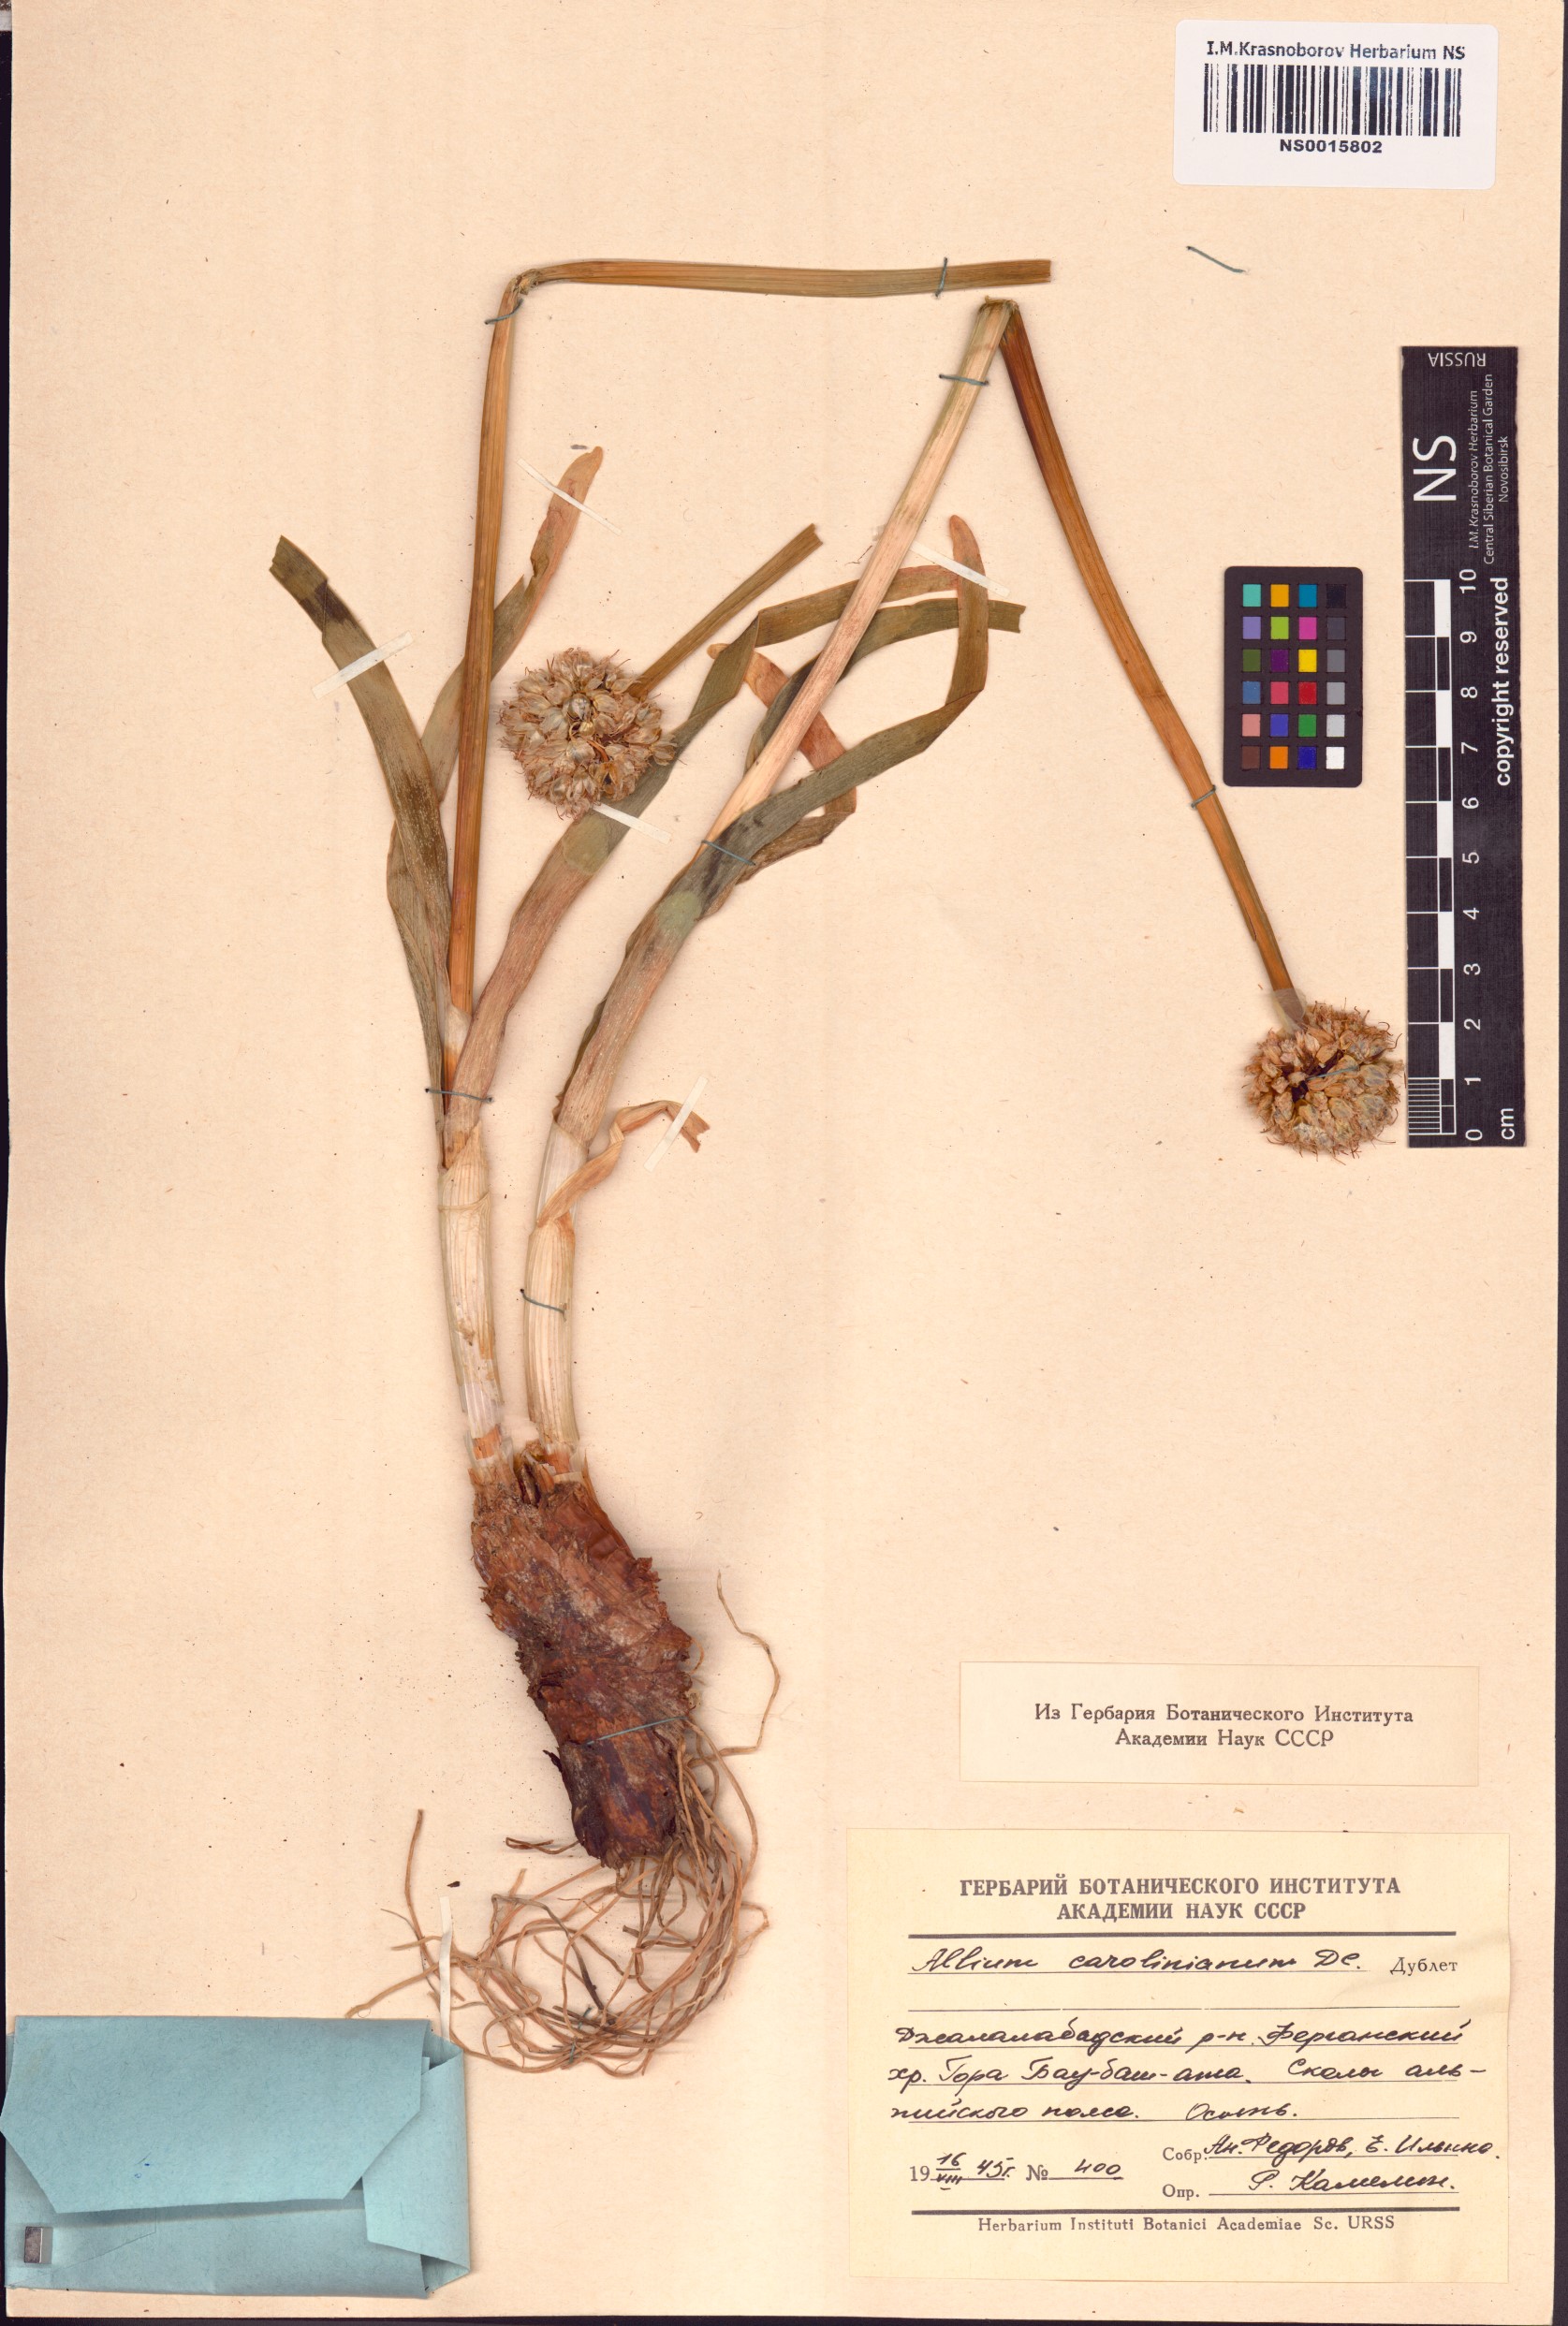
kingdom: Plantae
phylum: Tracheophyta
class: Liliopsida
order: Asparagales
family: Amaryllidaceae
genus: Allium
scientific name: Allium carolinianum
